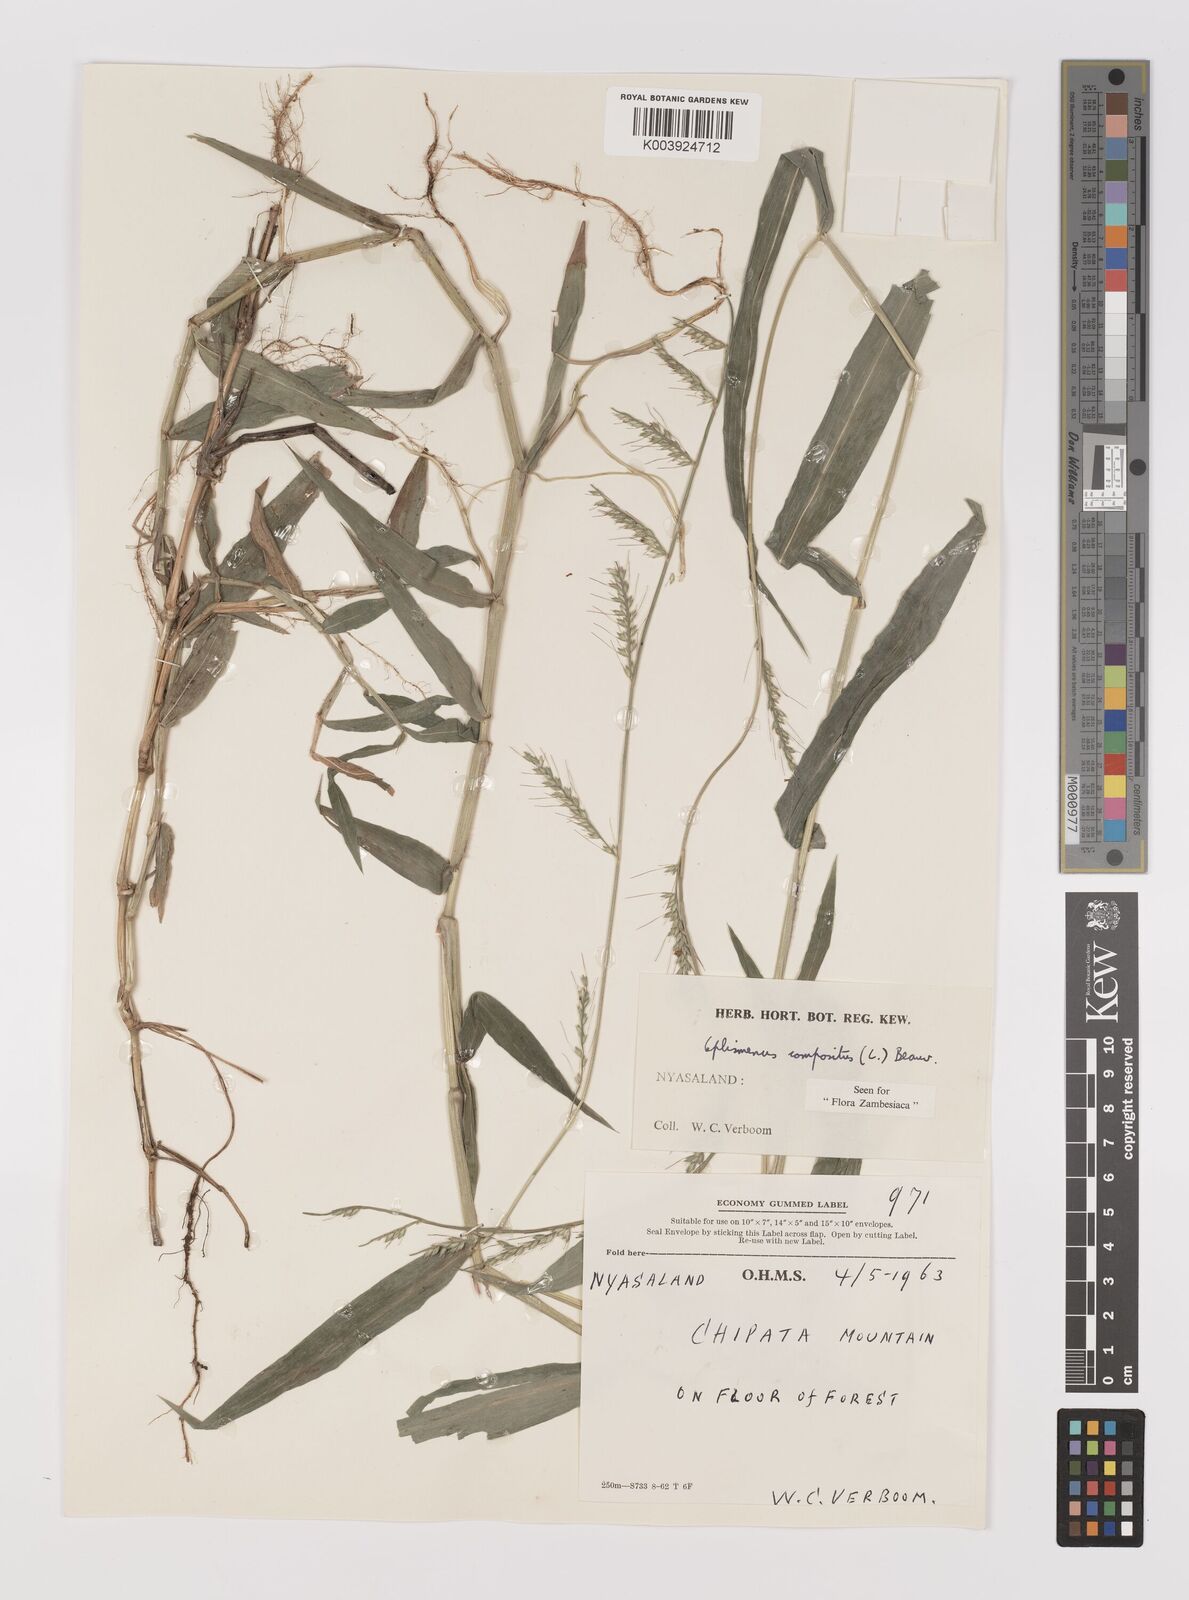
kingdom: Plantae
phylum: Tracheophyta
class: Liliopsida
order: Poales
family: Poaceae
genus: Oplismenus
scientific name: Oplismenus compositus
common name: Running mountain grass
